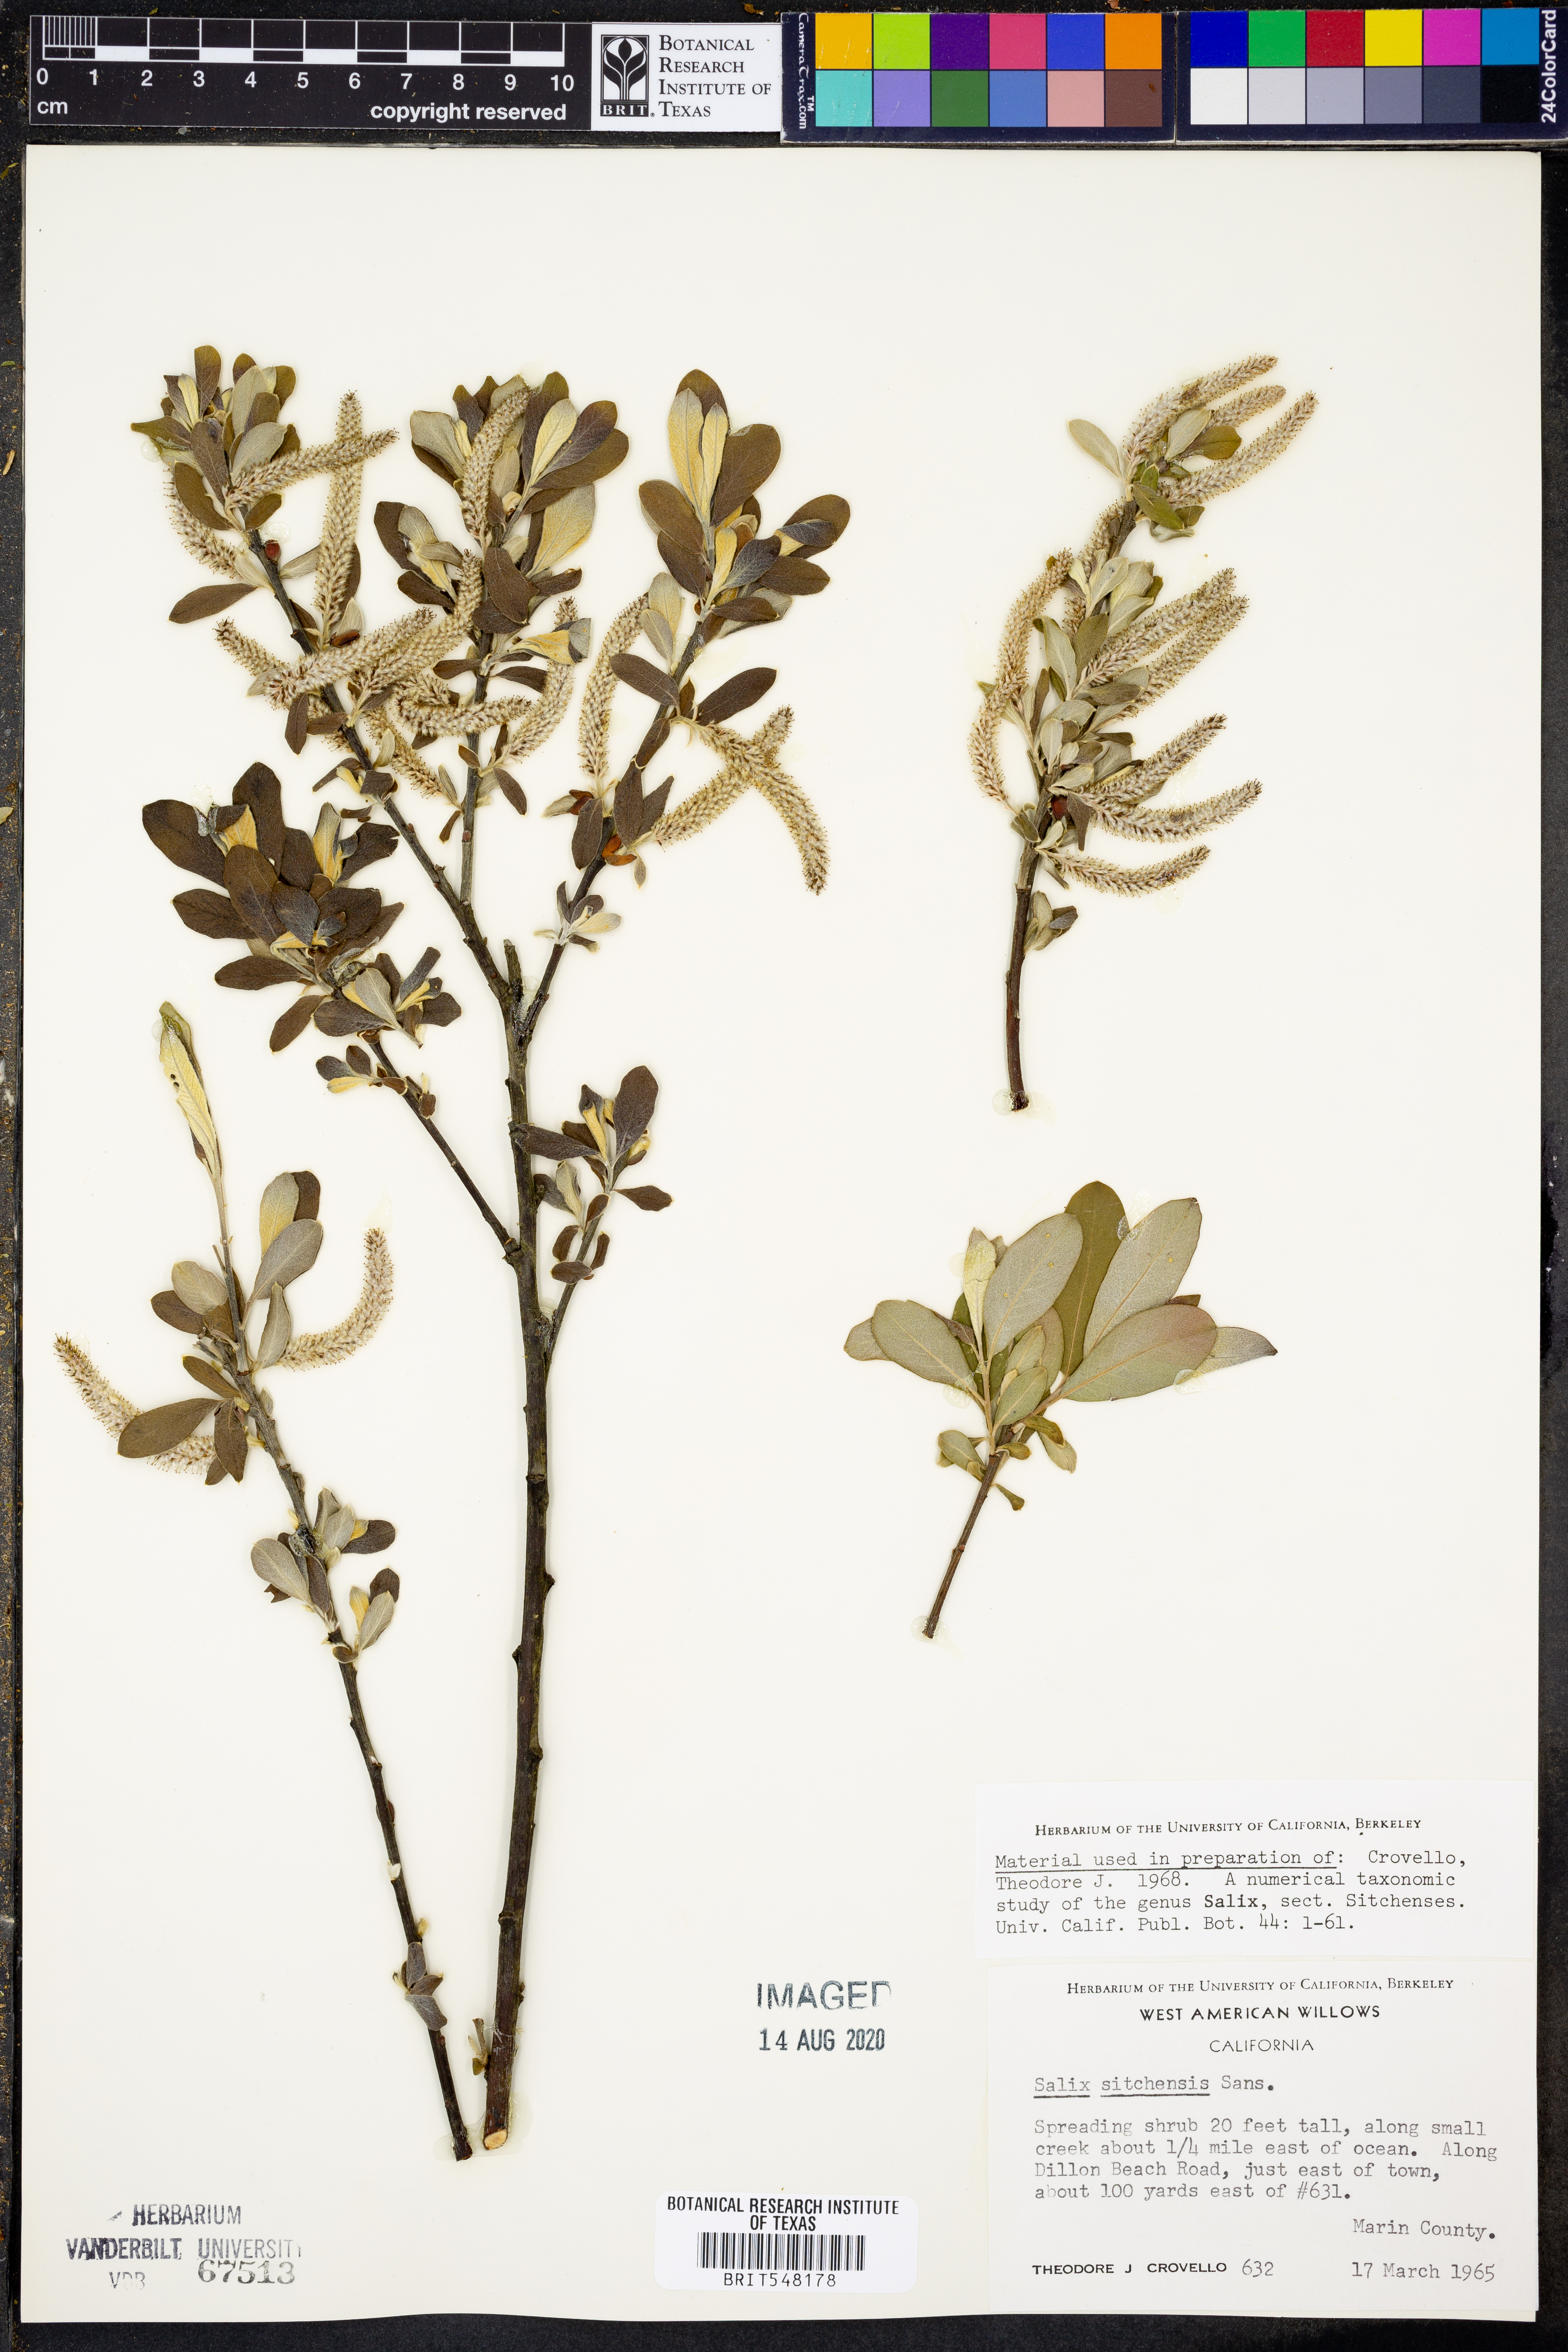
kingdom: Plantae
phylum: Tracheophyta
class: Magnoliopsida
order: Malpighiales
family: Salicaceae
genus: Salix
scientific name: Salix sitchensis
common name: Sitka willow
